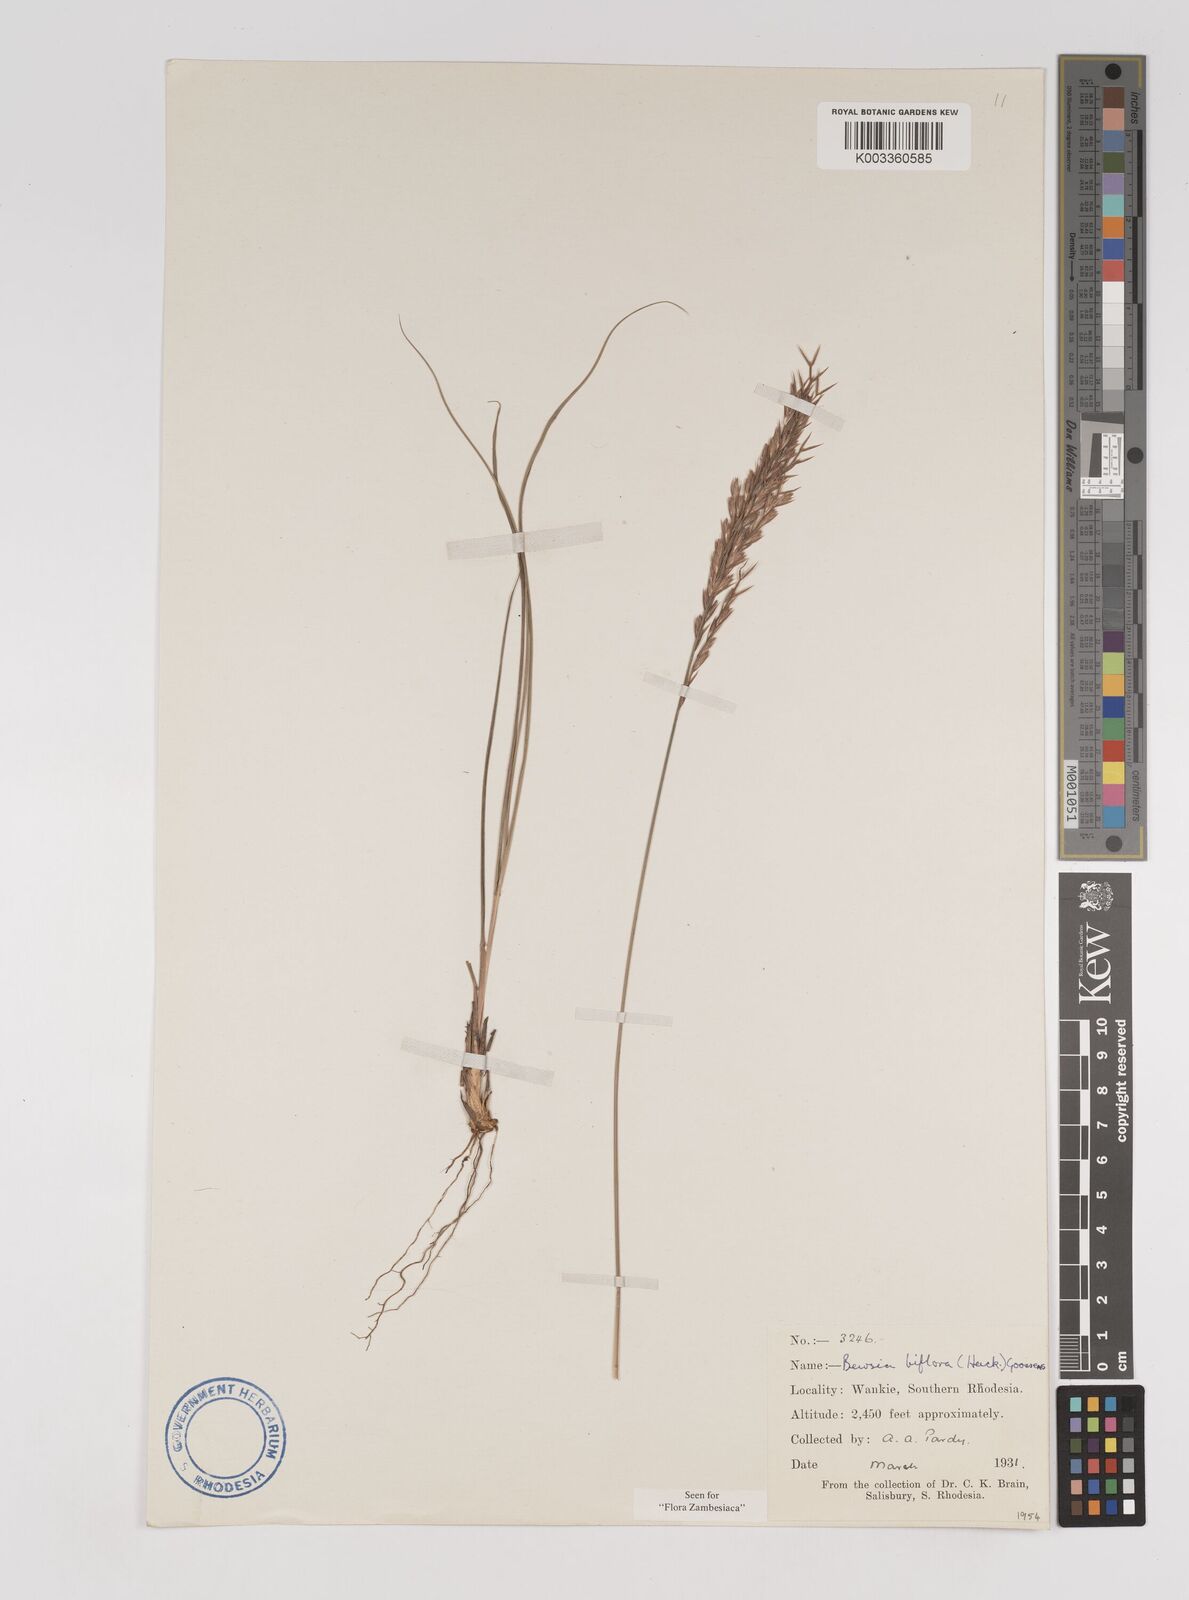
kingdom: Plantae
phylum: Tracheophyta
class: Liliopsida
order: Poales
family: Poaceae
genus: Bewsia
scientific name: Bewsia biflora
